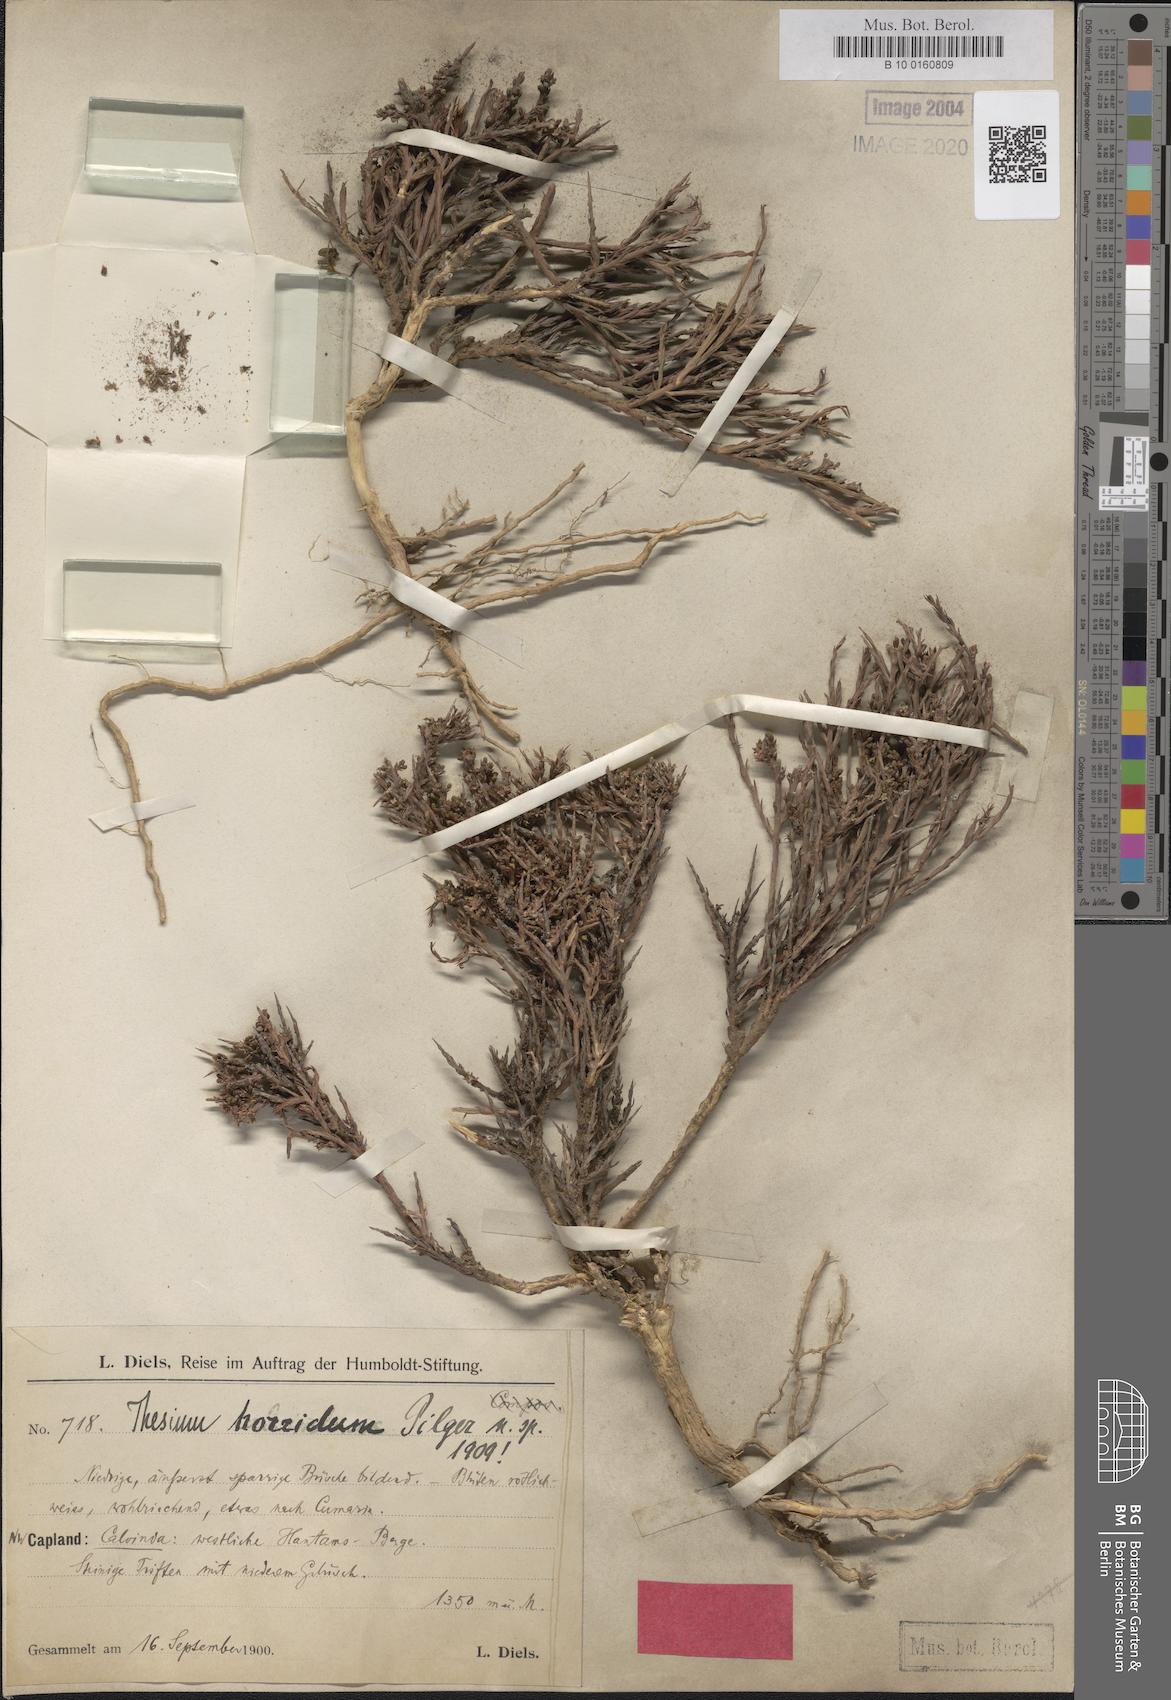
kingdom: Plantae
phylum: Tracheophyta
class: Magnoliopsida
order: Santalales
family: Thesiaceae
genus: Thesium
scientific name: Thesium horridum
